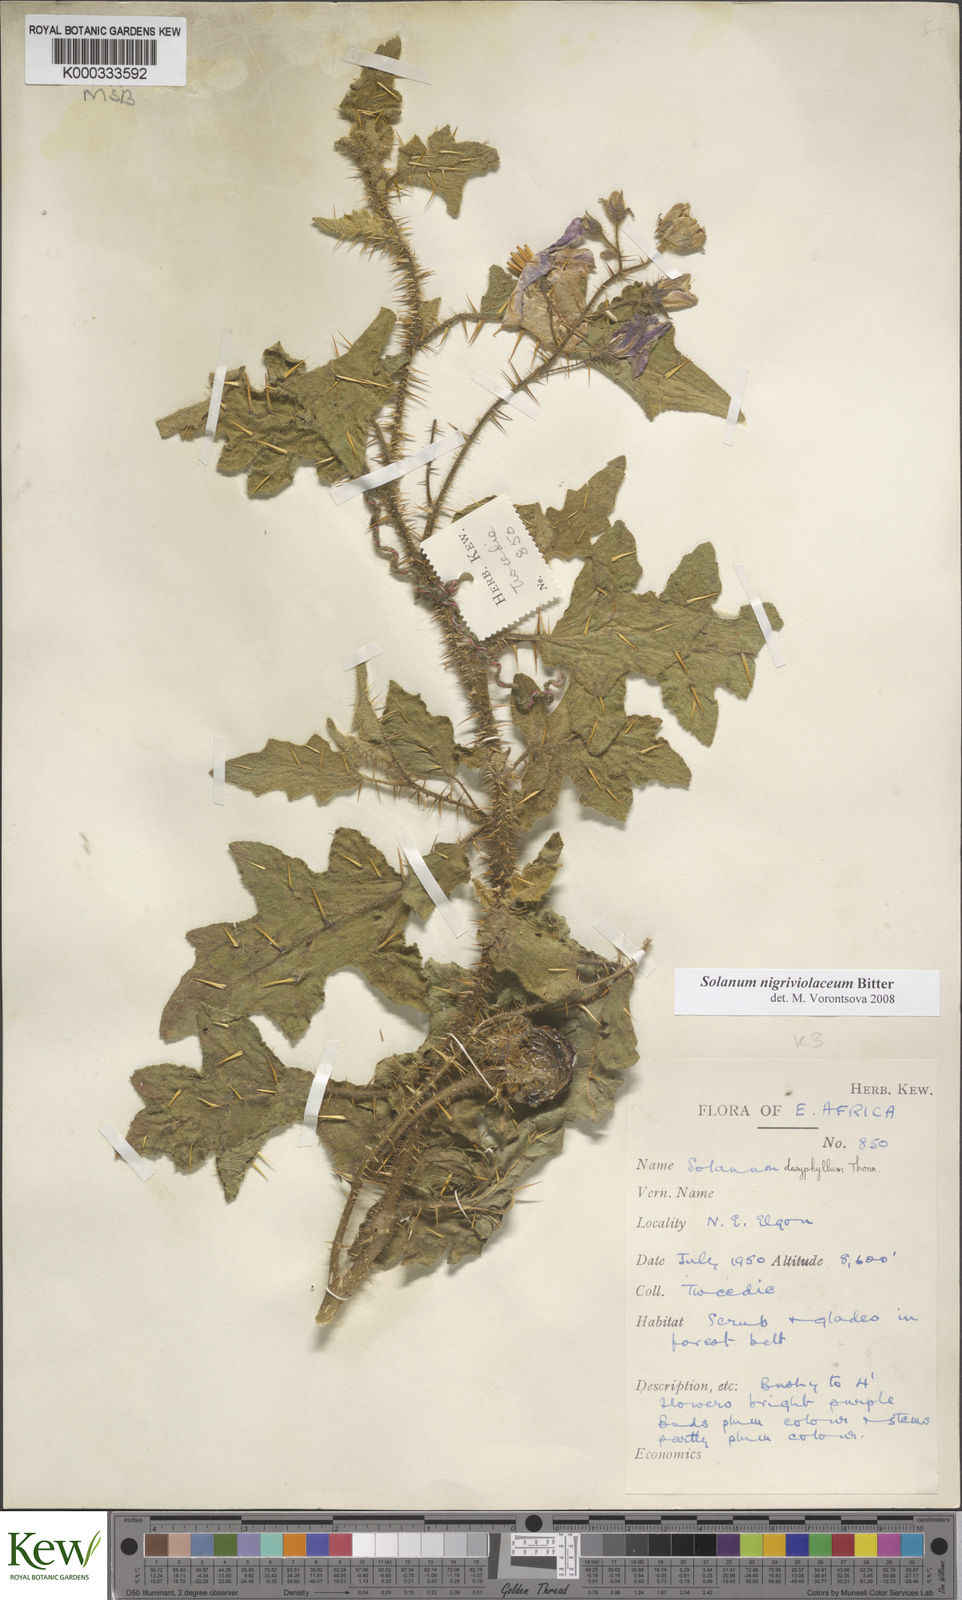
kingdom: Plantae
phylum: Tracheophyta
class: Magnoliopsida
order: Solanales
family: Solanaceae
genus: Solanum
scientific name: Solanum nigriviolaceum
